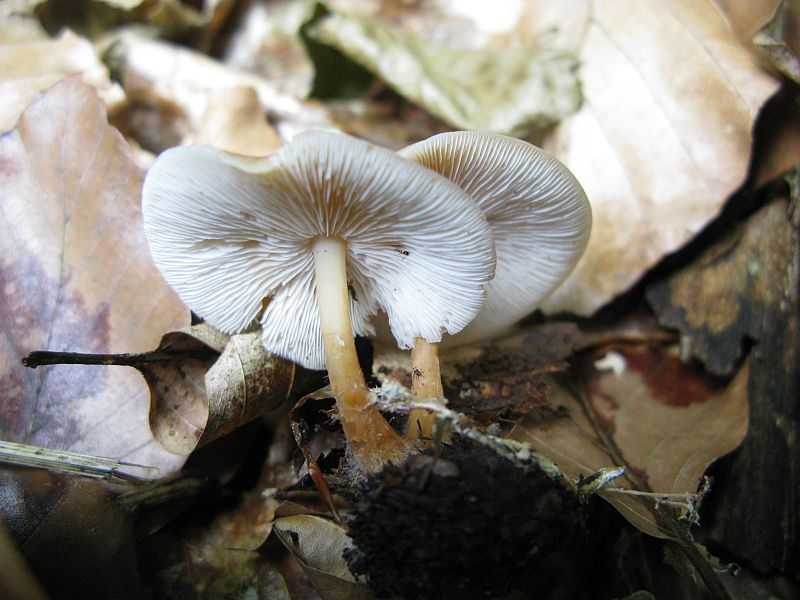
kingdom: Fungi
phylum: Basidiomycota
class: Agaricomycetes
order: Agaricales
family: Omphalotaceae
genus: Gymnopus
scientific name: Gymnopus dryophilus
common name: løv-fladhat
